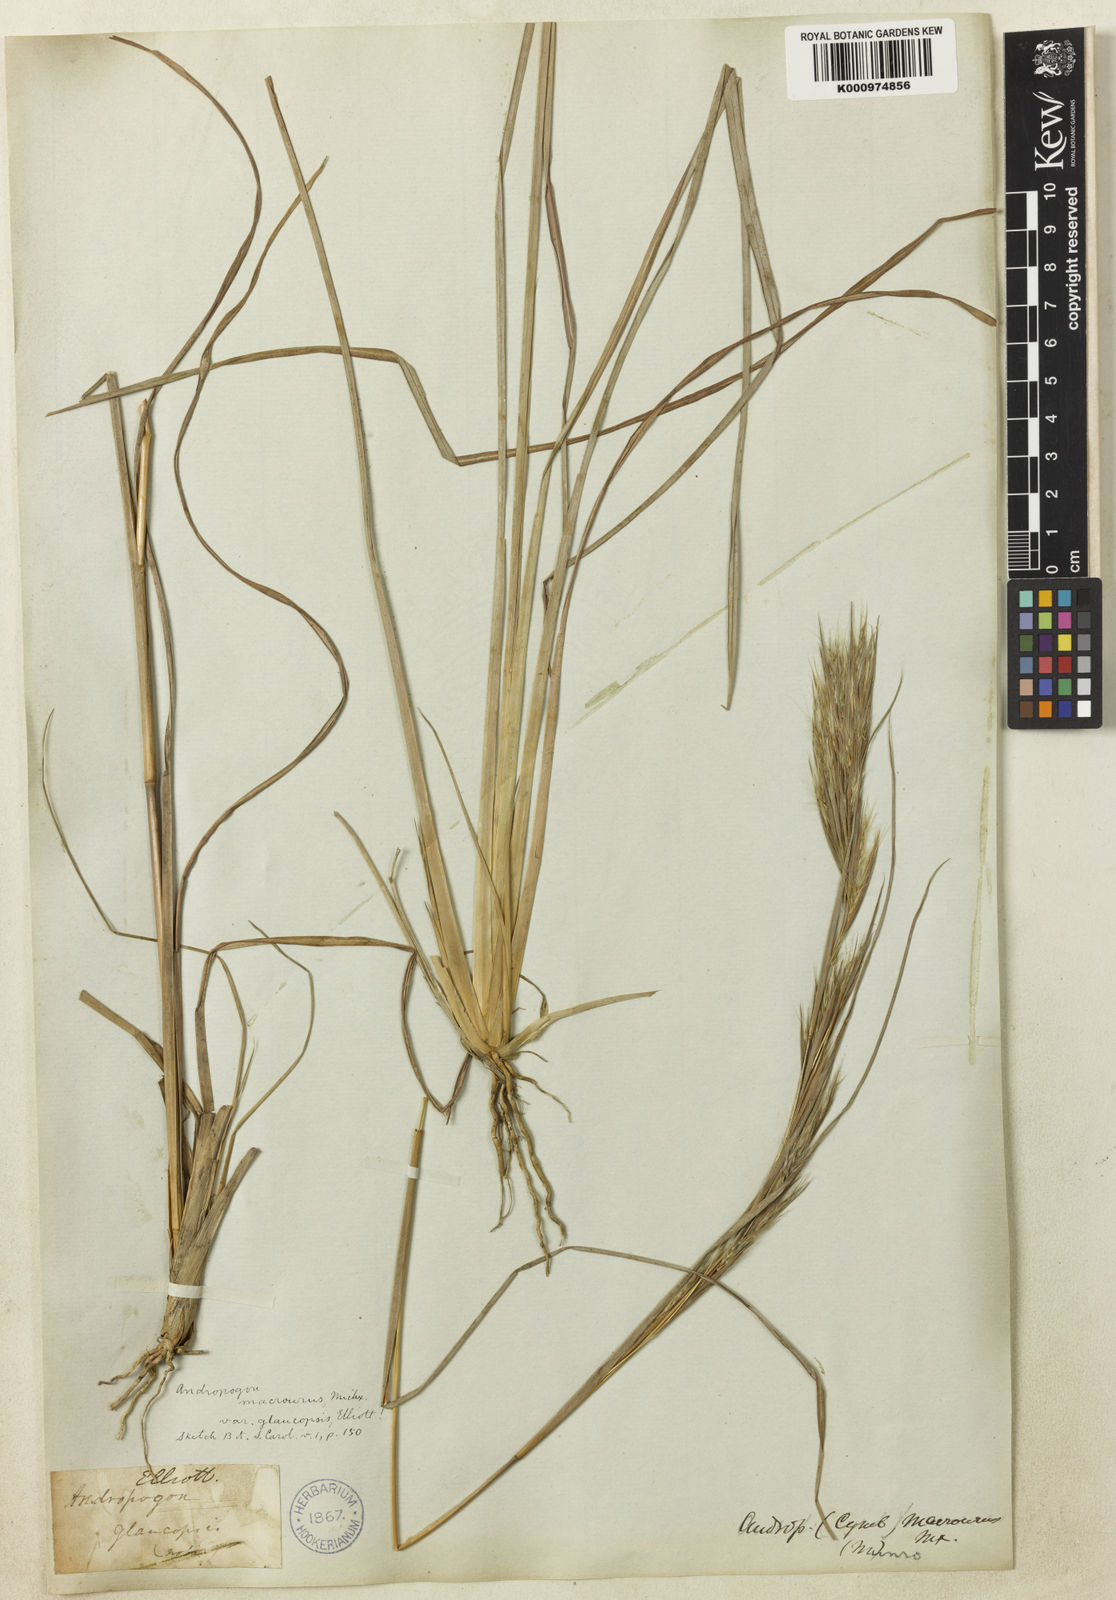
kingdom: Plantae
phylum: Tracheophyta
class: Liliopsida
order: Poales
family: Poaceae
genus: Andropogon
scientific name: Andropogon capillipes
